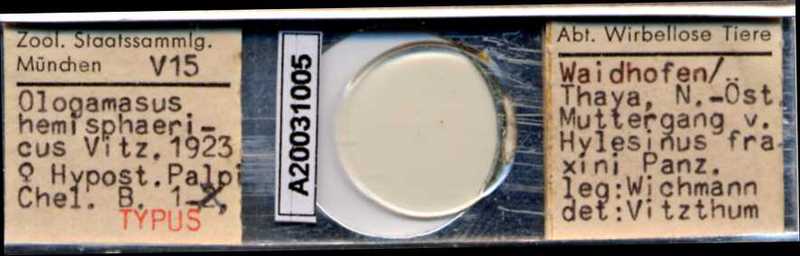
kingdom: Animalia
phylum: Arthropoda
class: Arachnida
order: Mesostigmata
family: Parasitidae
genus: Holoparasitus
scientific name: Holoparasitus hemisphaericus
